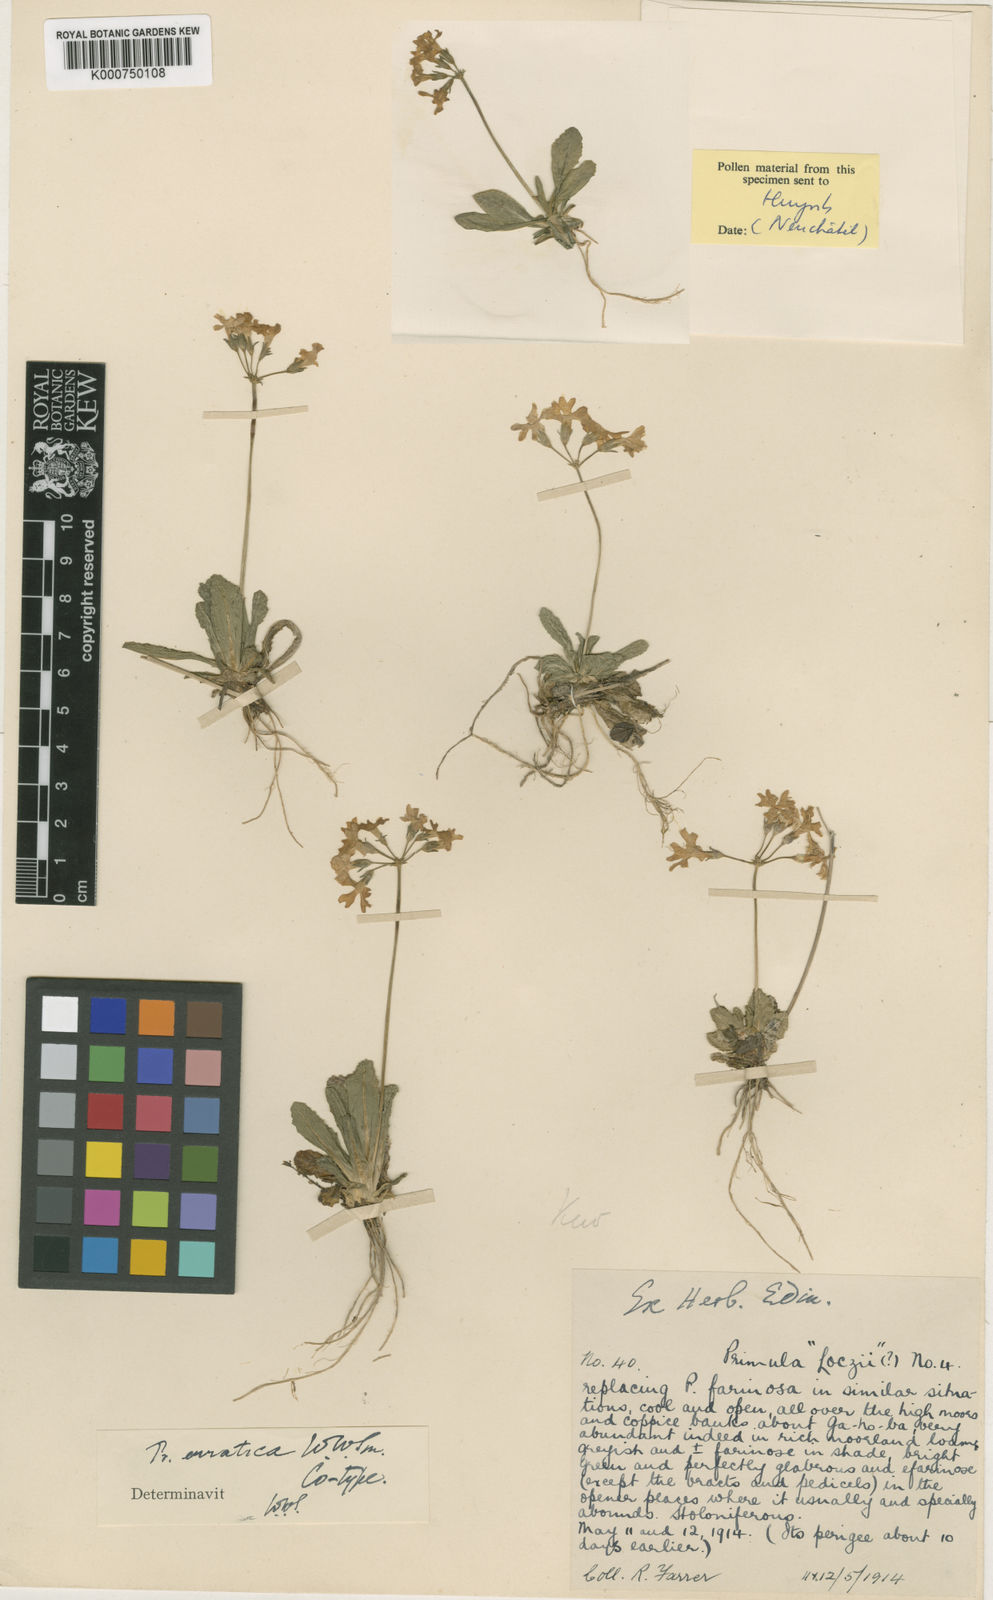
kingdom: Plantae
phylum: Tracheophyta
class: Magnoliopsida
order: Ericales
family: Primulaceae
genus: Primula
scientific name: Primula erratica
